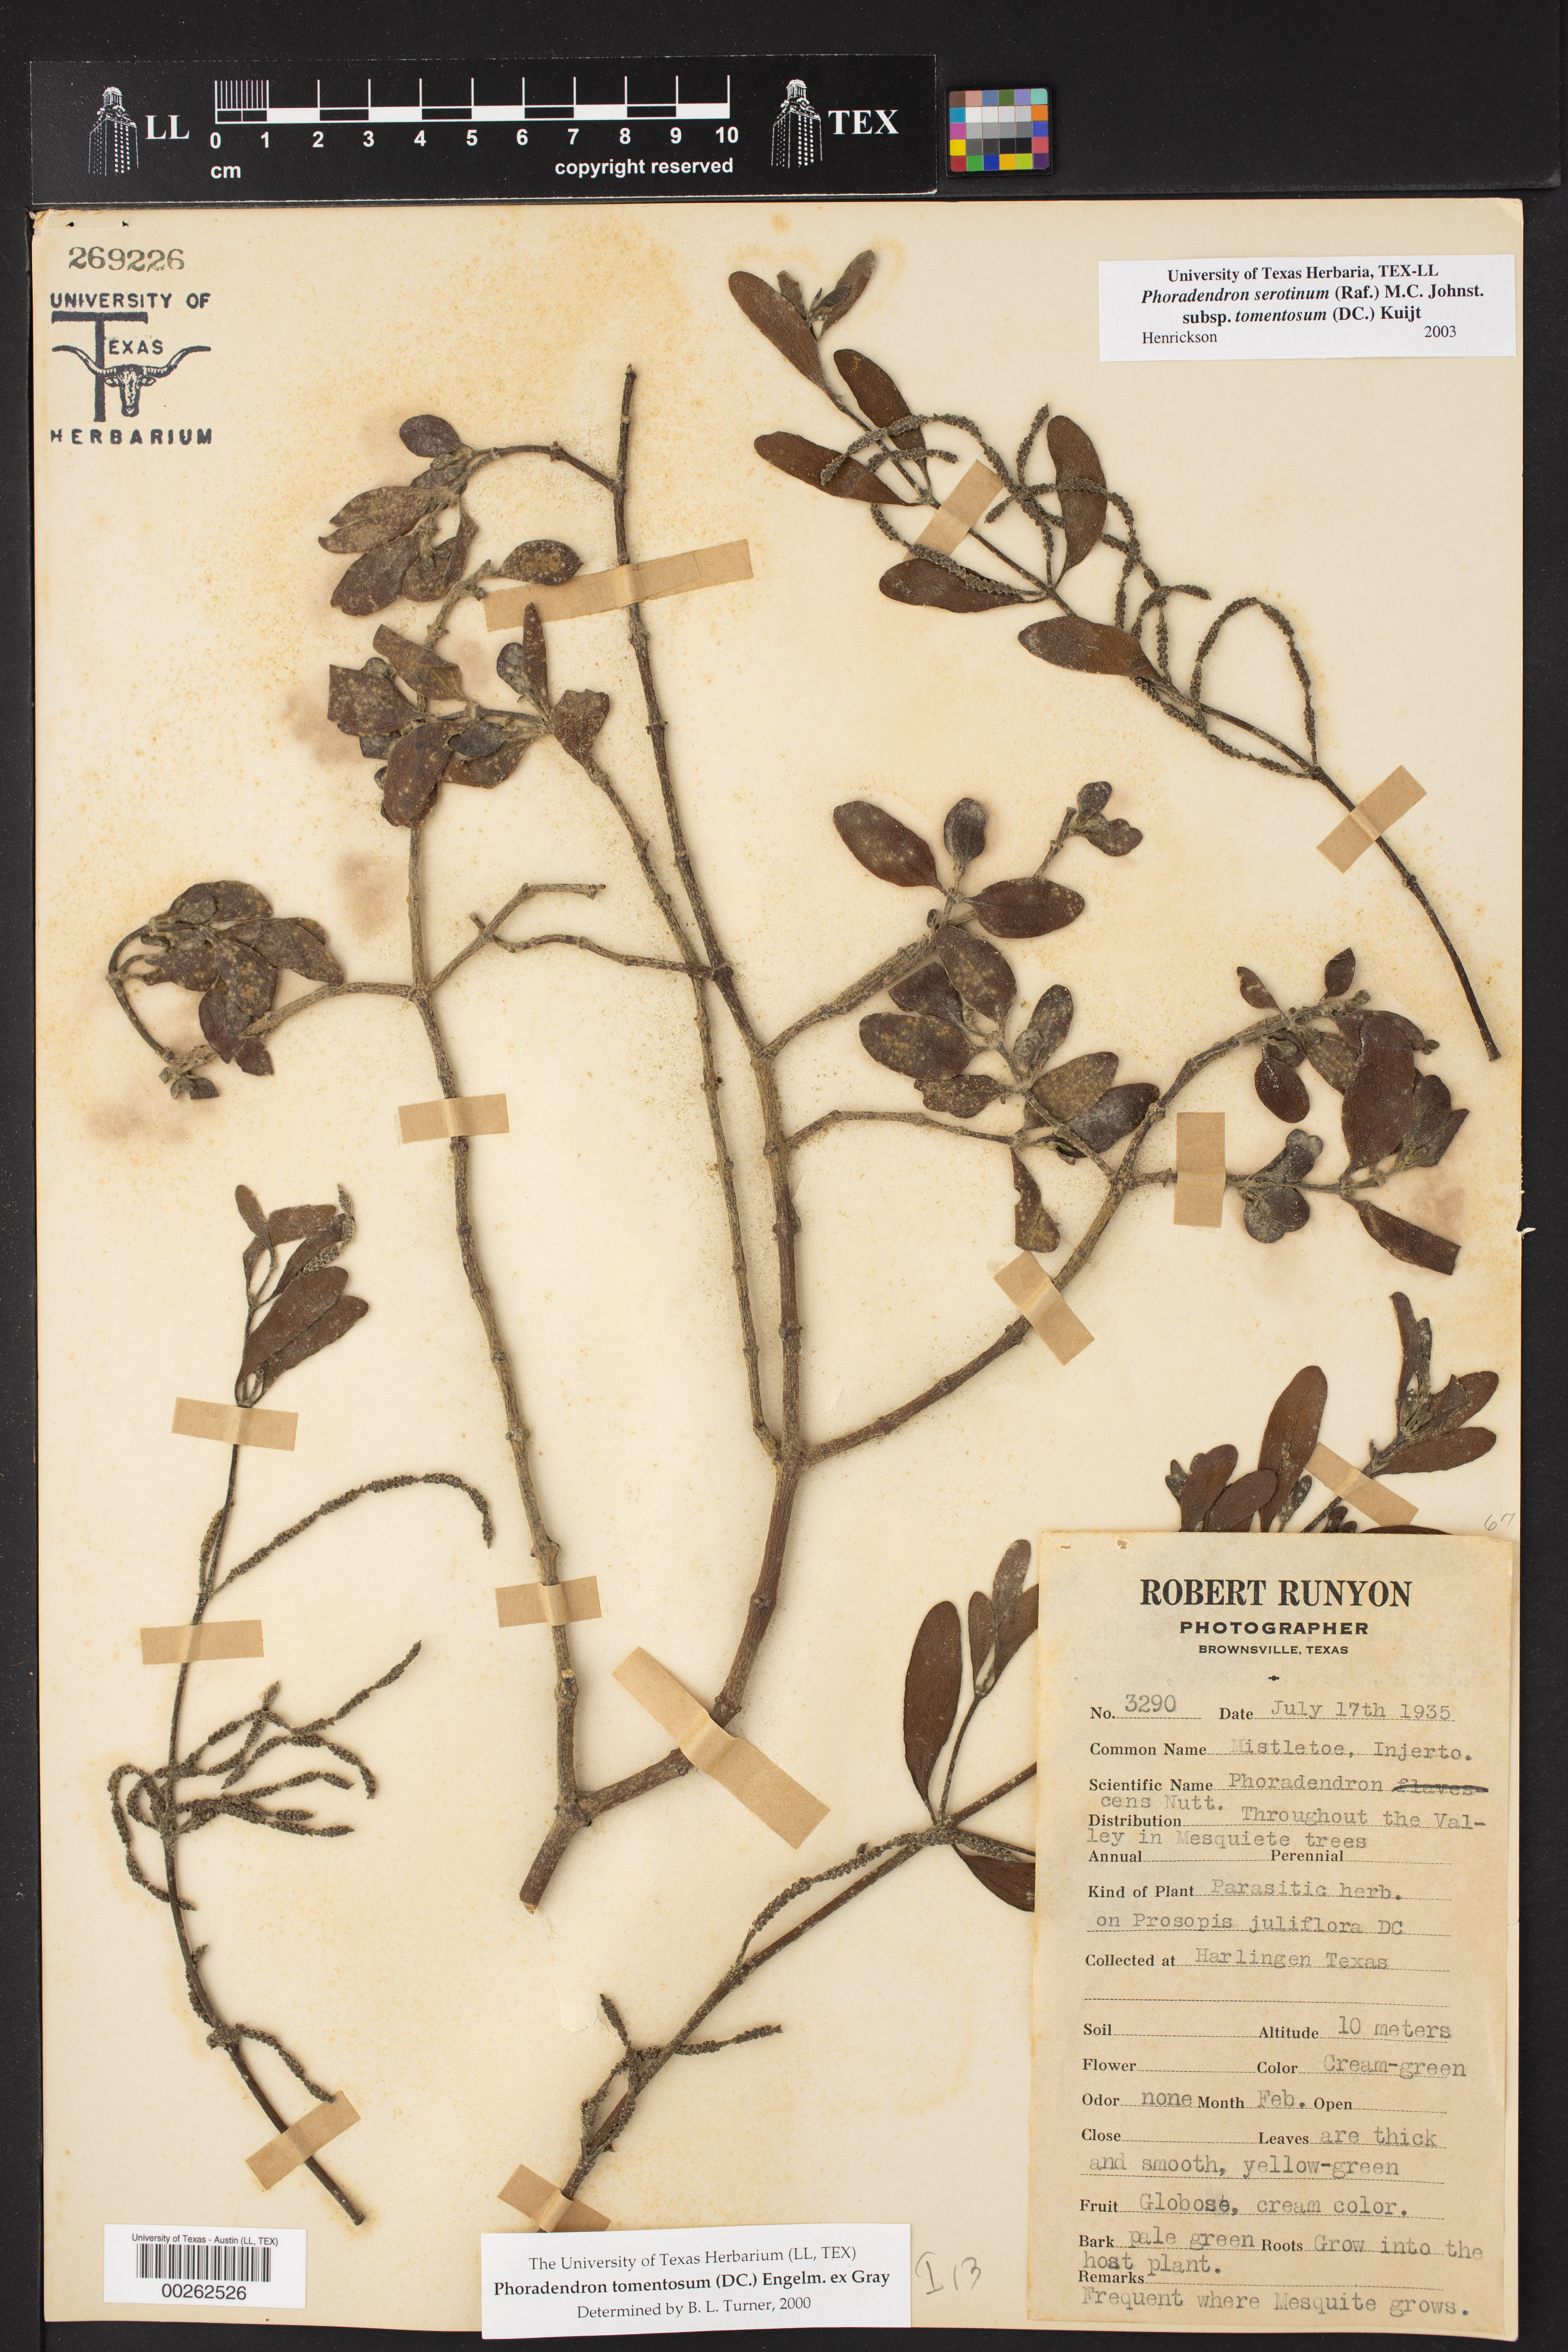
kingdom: Plantae
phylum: Tracheophyta
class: Magnoliopsida
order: Santalales
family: Viscaceae
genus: Phoradendron
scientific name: Phoradendron leucarpum
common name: Pacific mistletoe
